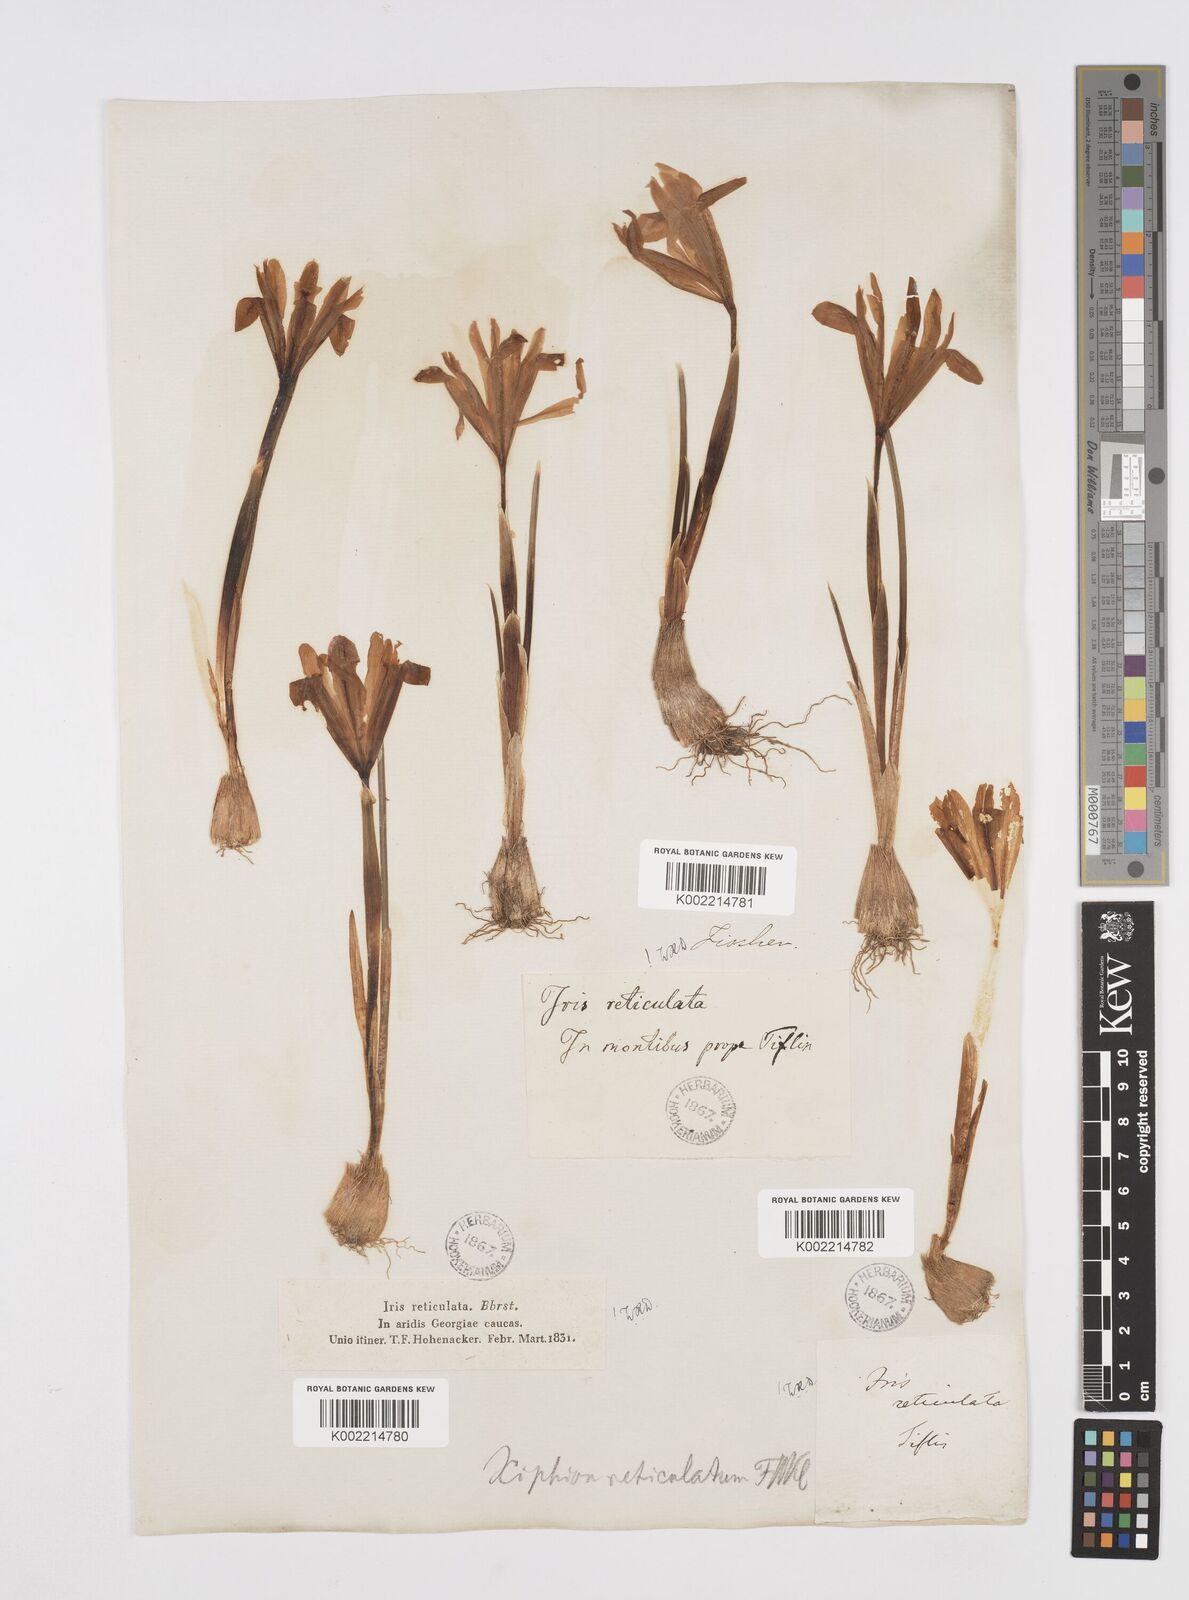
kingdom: Plantae
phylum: Tracheophyta
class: Liliopsida
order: Asparagales
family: Iridaceae
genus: Iris
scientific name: Iris reticulata
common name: Netted iris
